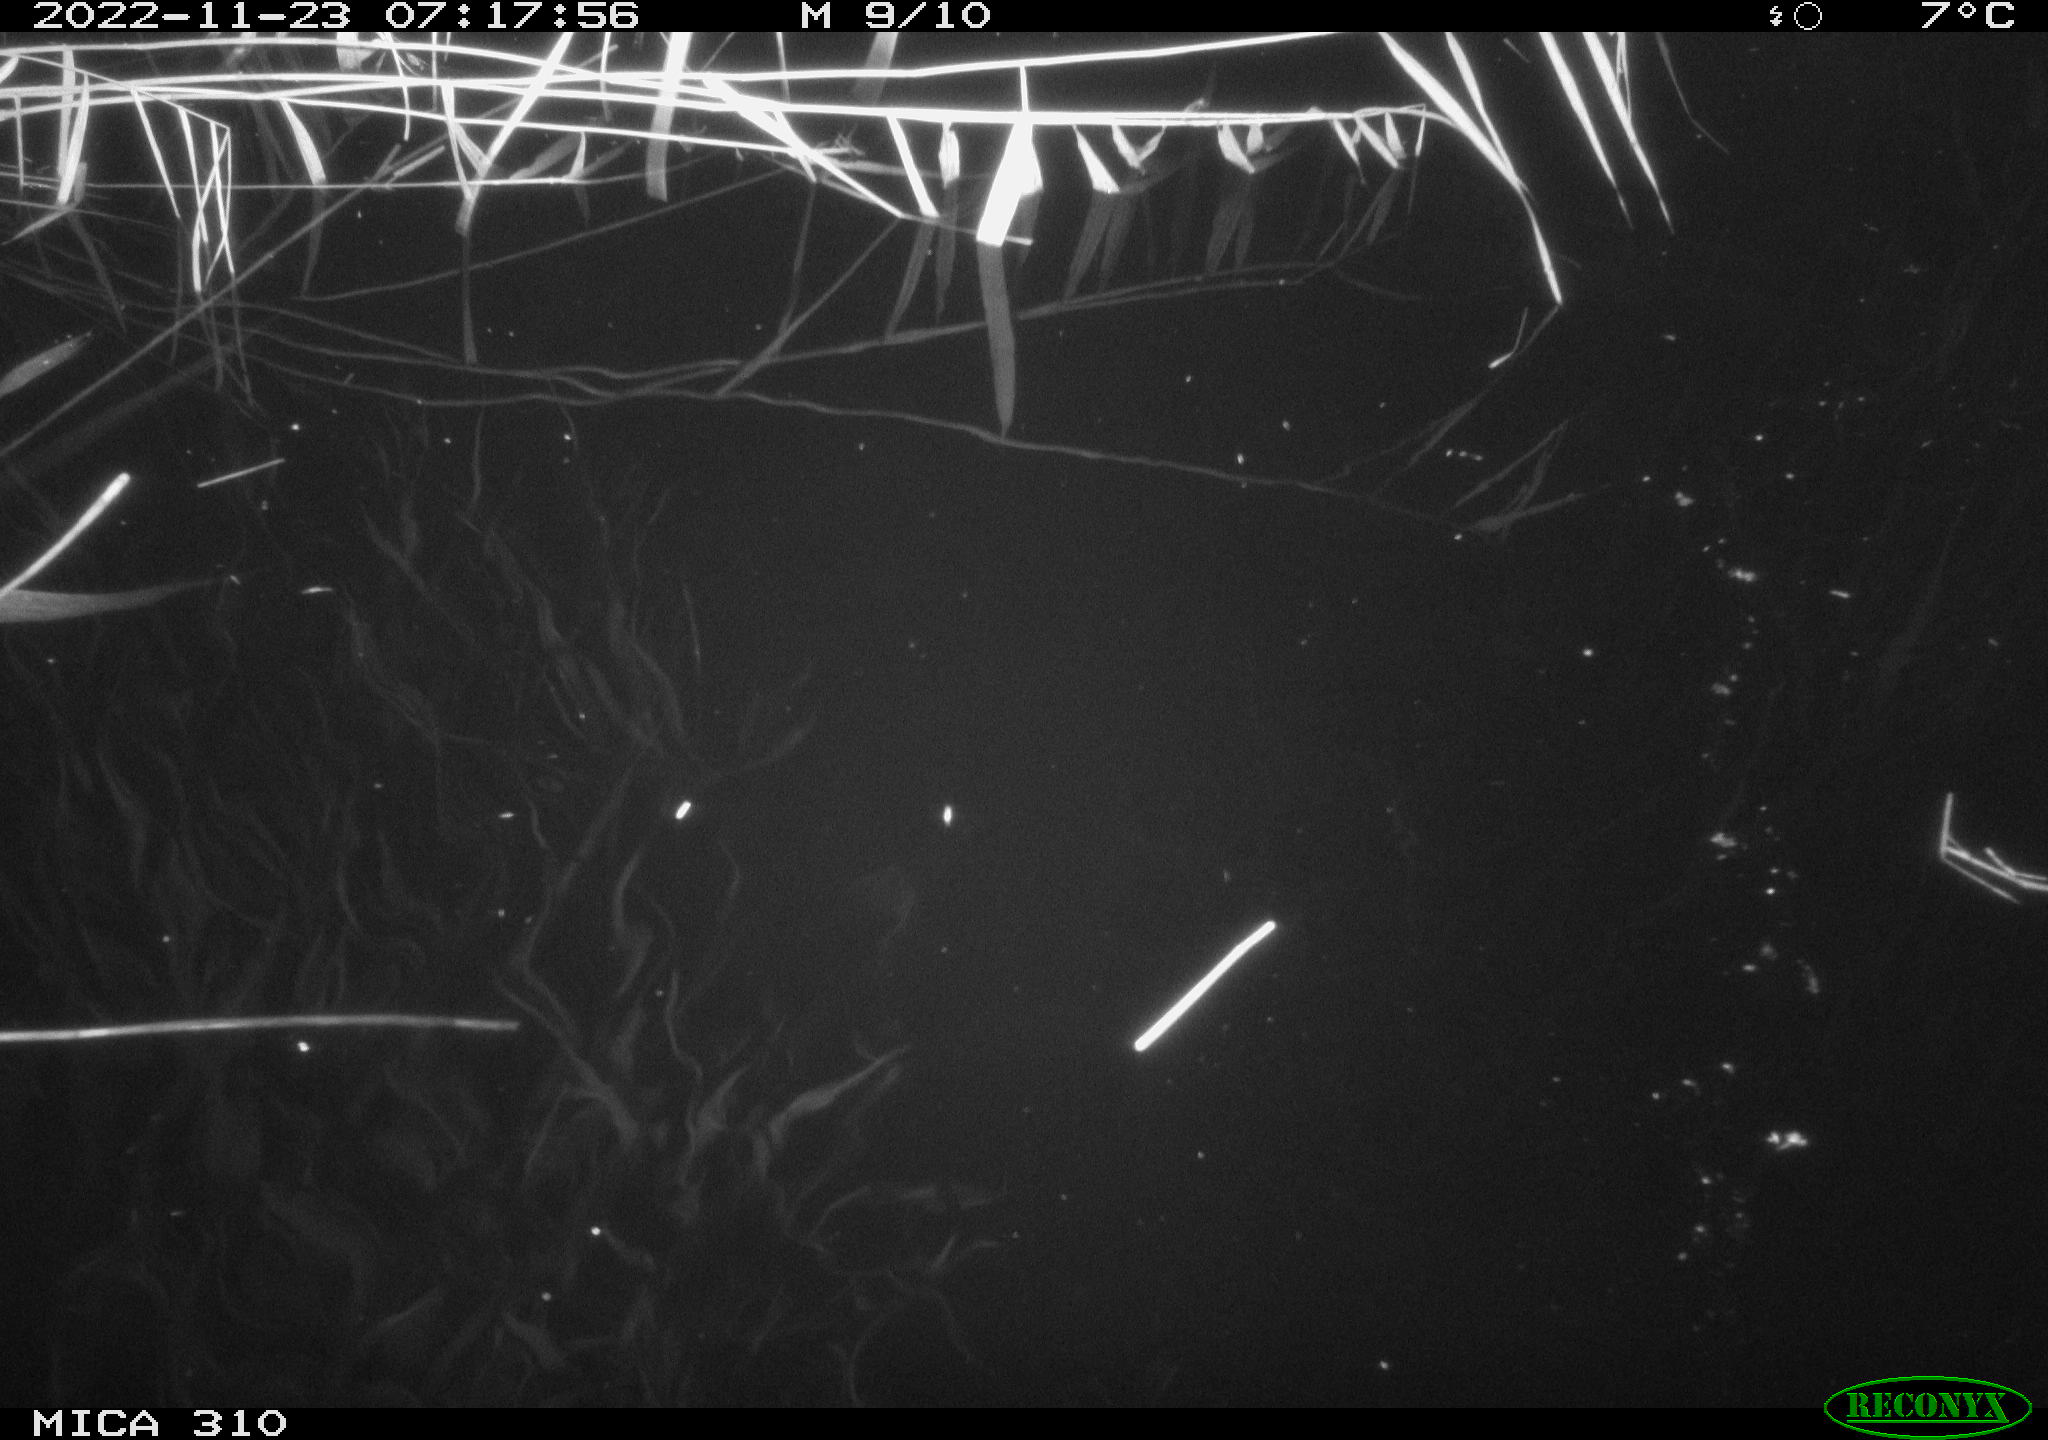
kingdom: Animalia
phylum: Chordata
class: Aves
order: Anseriformes
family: Anatidae
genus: Anas
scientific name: Anas
